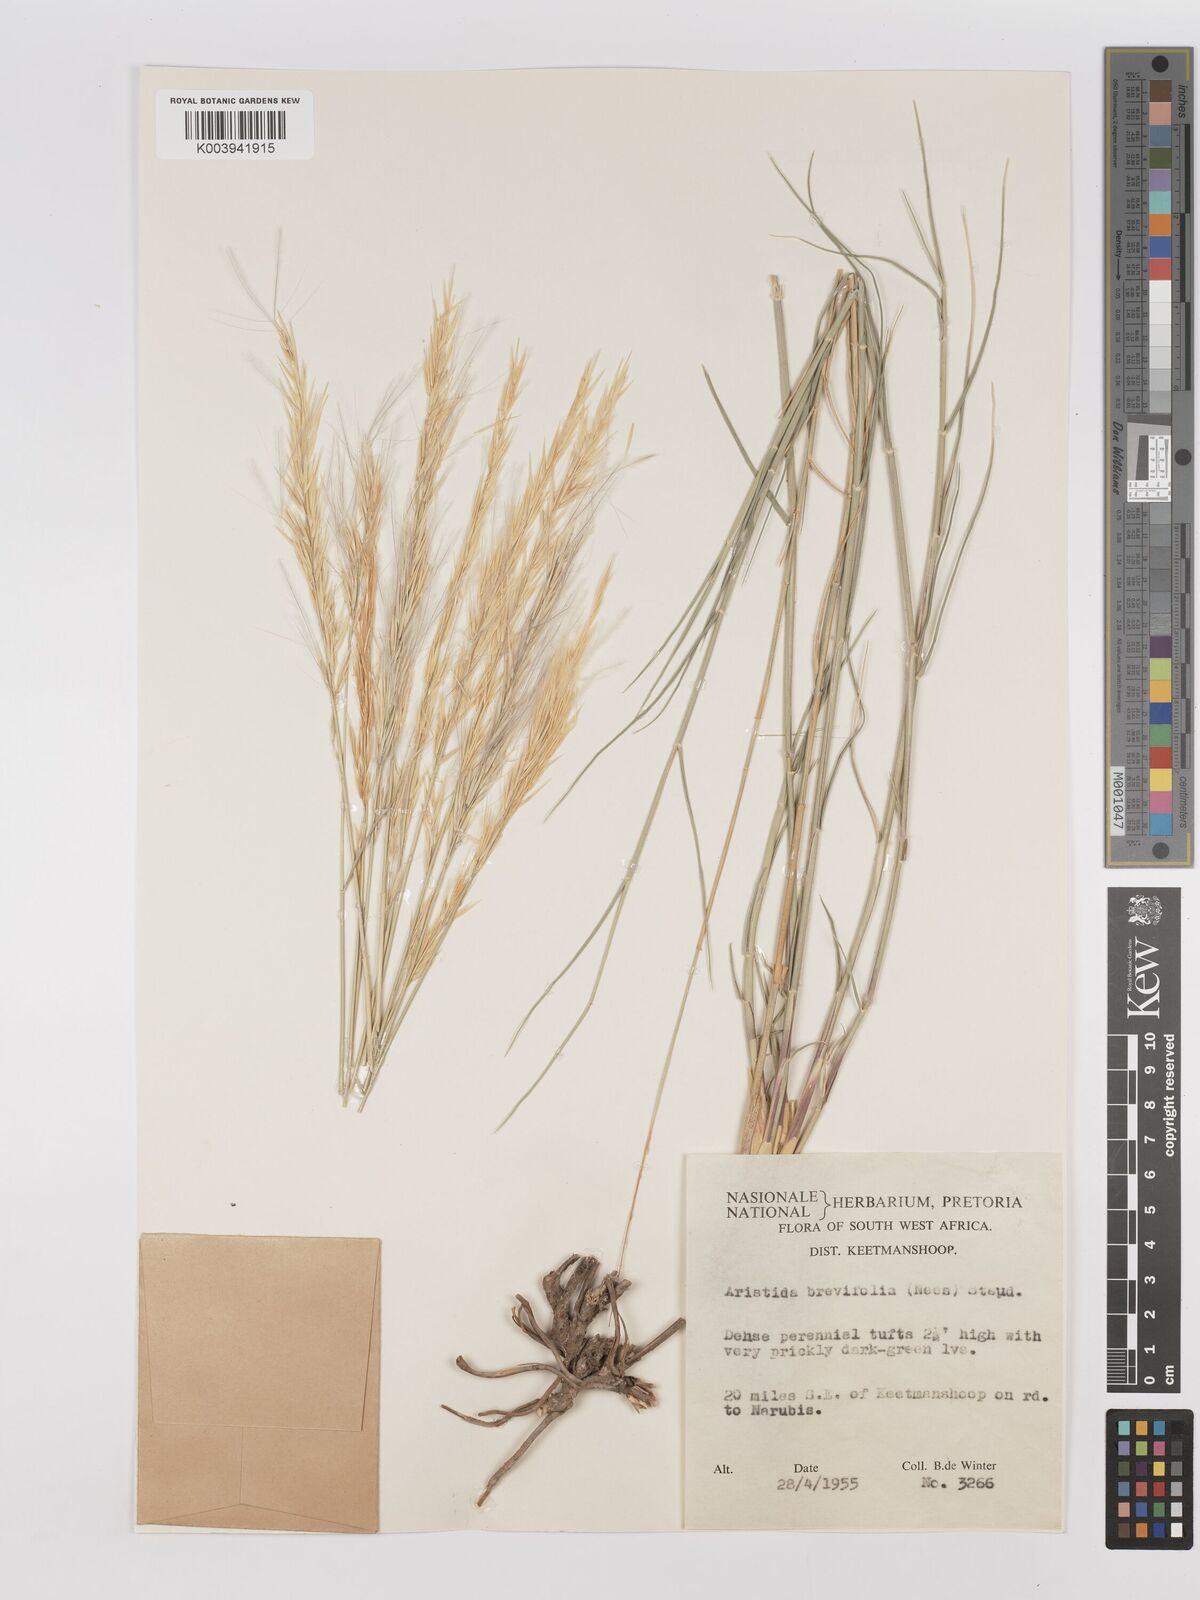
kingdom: Plantae
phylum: Tracheophyta
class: Liliopsida
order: Poales
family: Poaceae
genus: Stipagrostis
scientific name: Stipagrostis brevifolia
